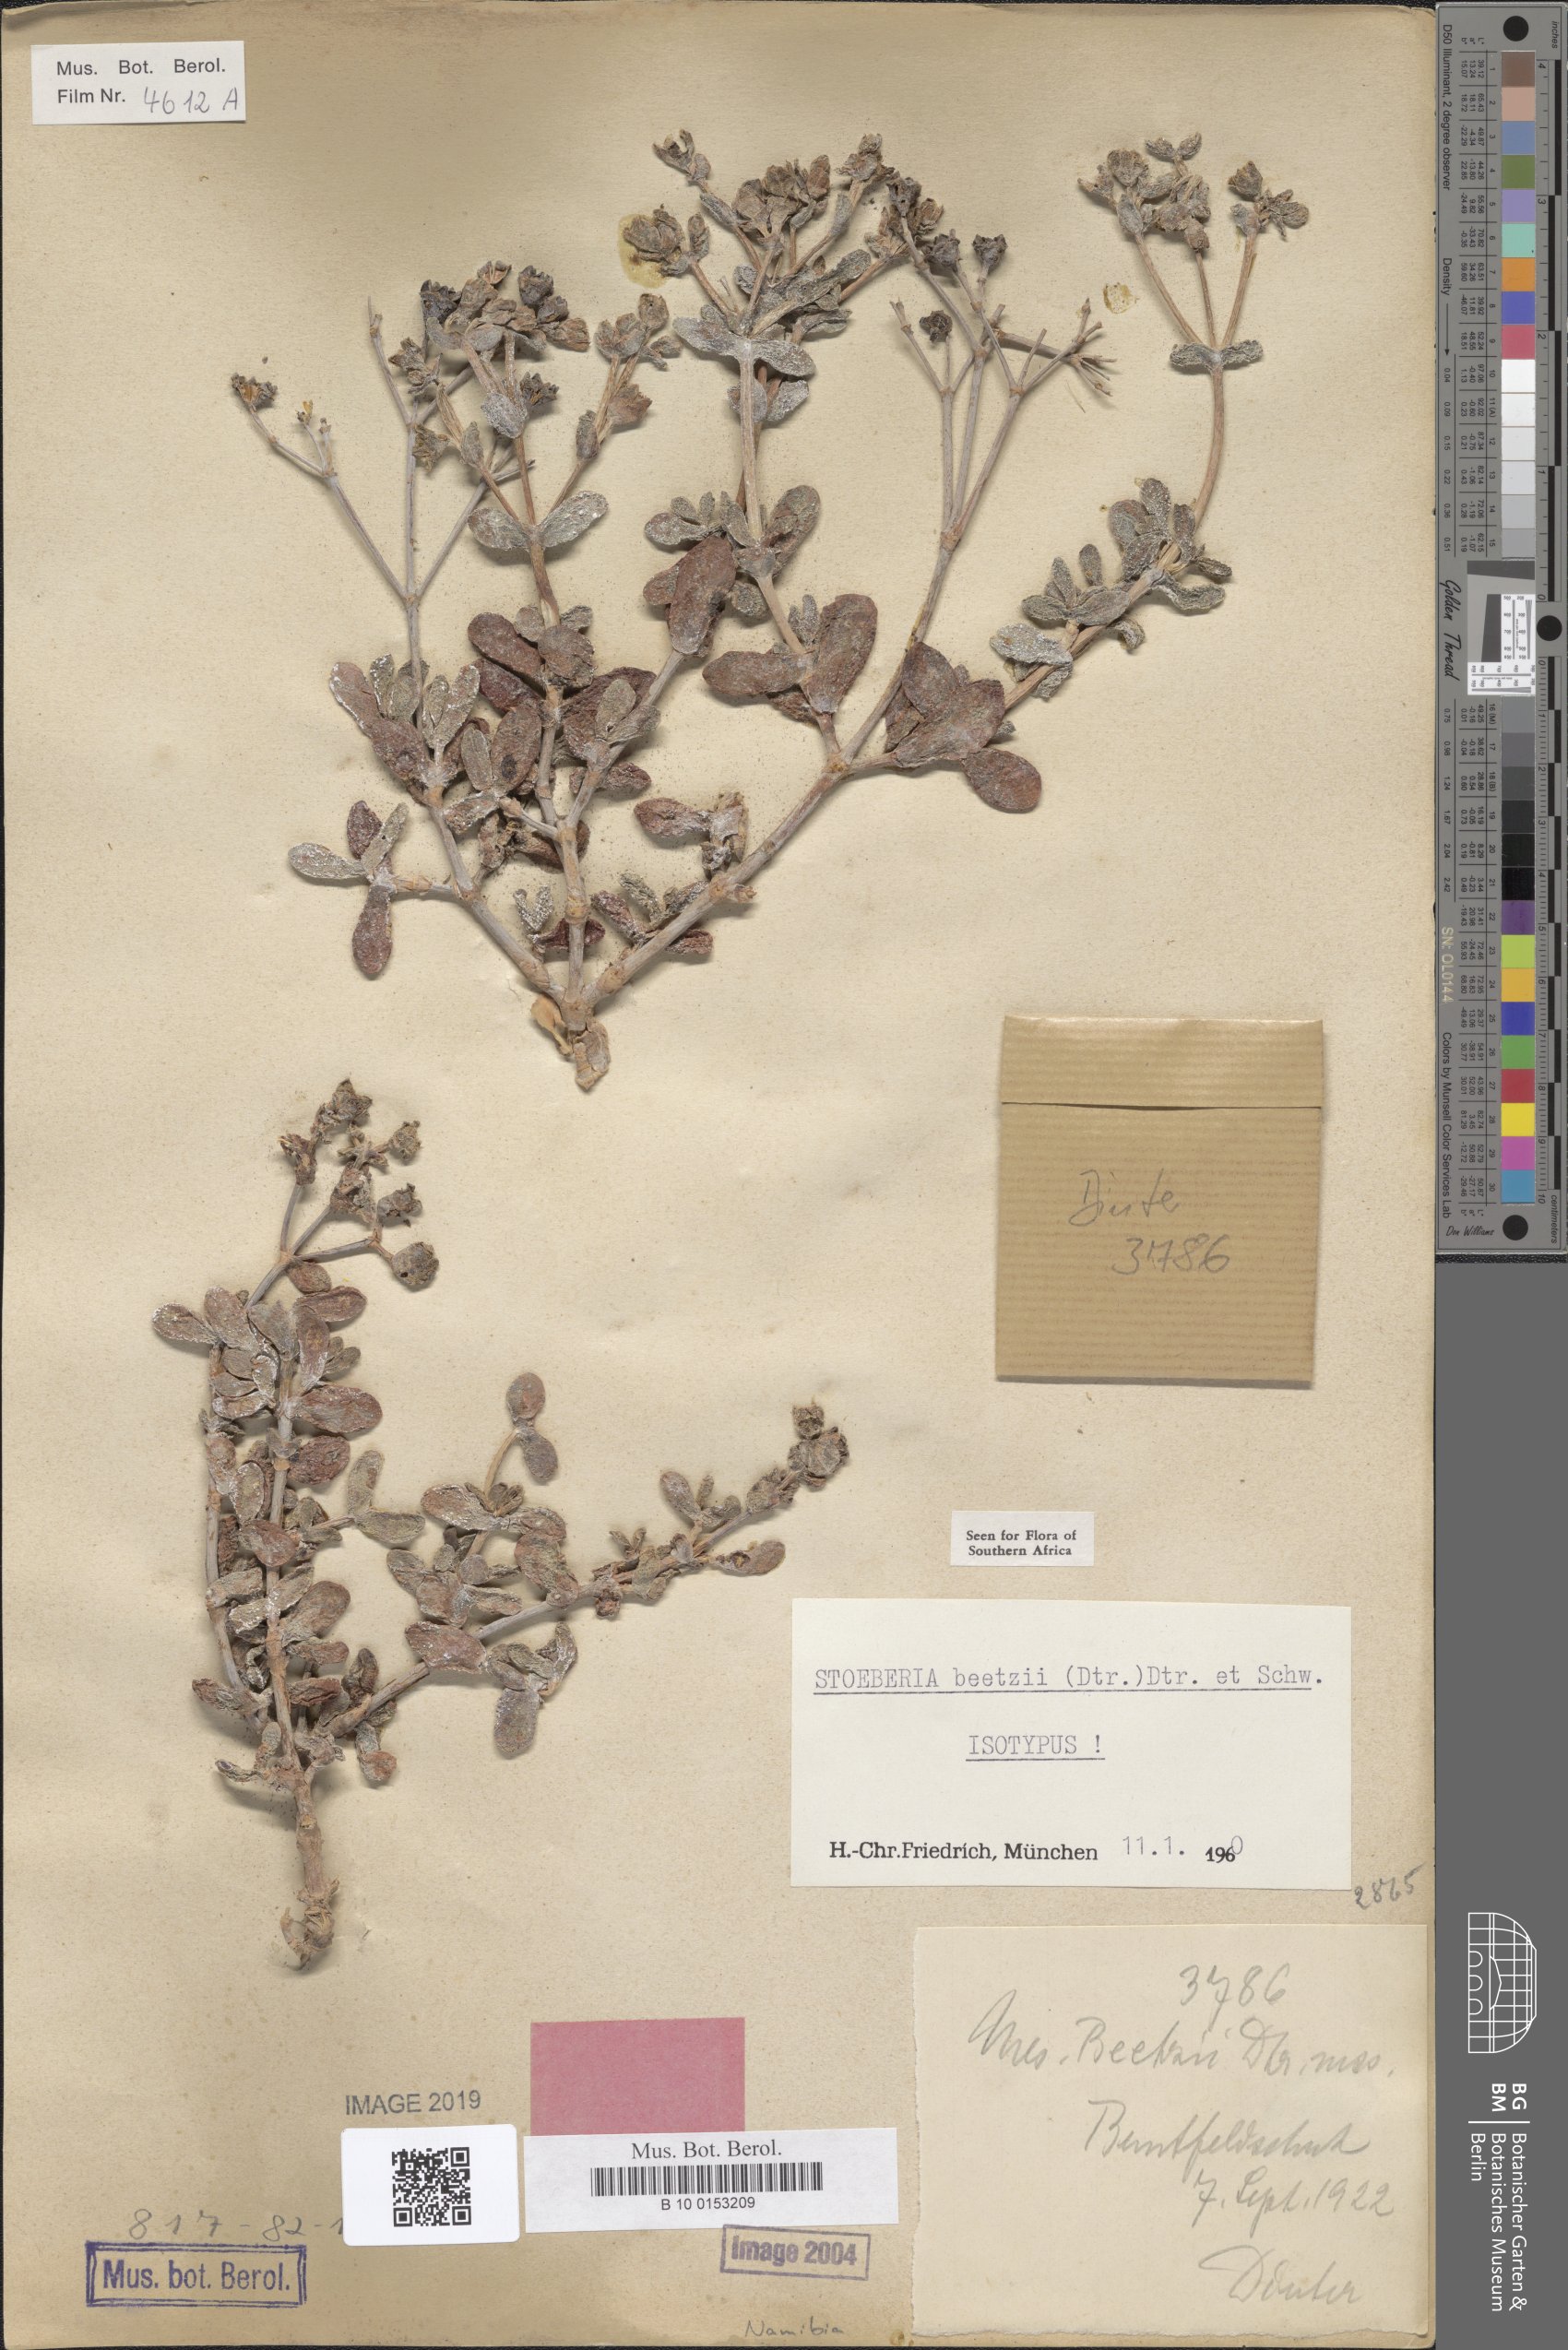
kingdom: Plantae
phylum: Tracheophyta
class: Magnoliopsida
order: Caryophyllales
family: Aizoaceae
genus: Stoeberia
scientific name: Stoeberia beetzii
